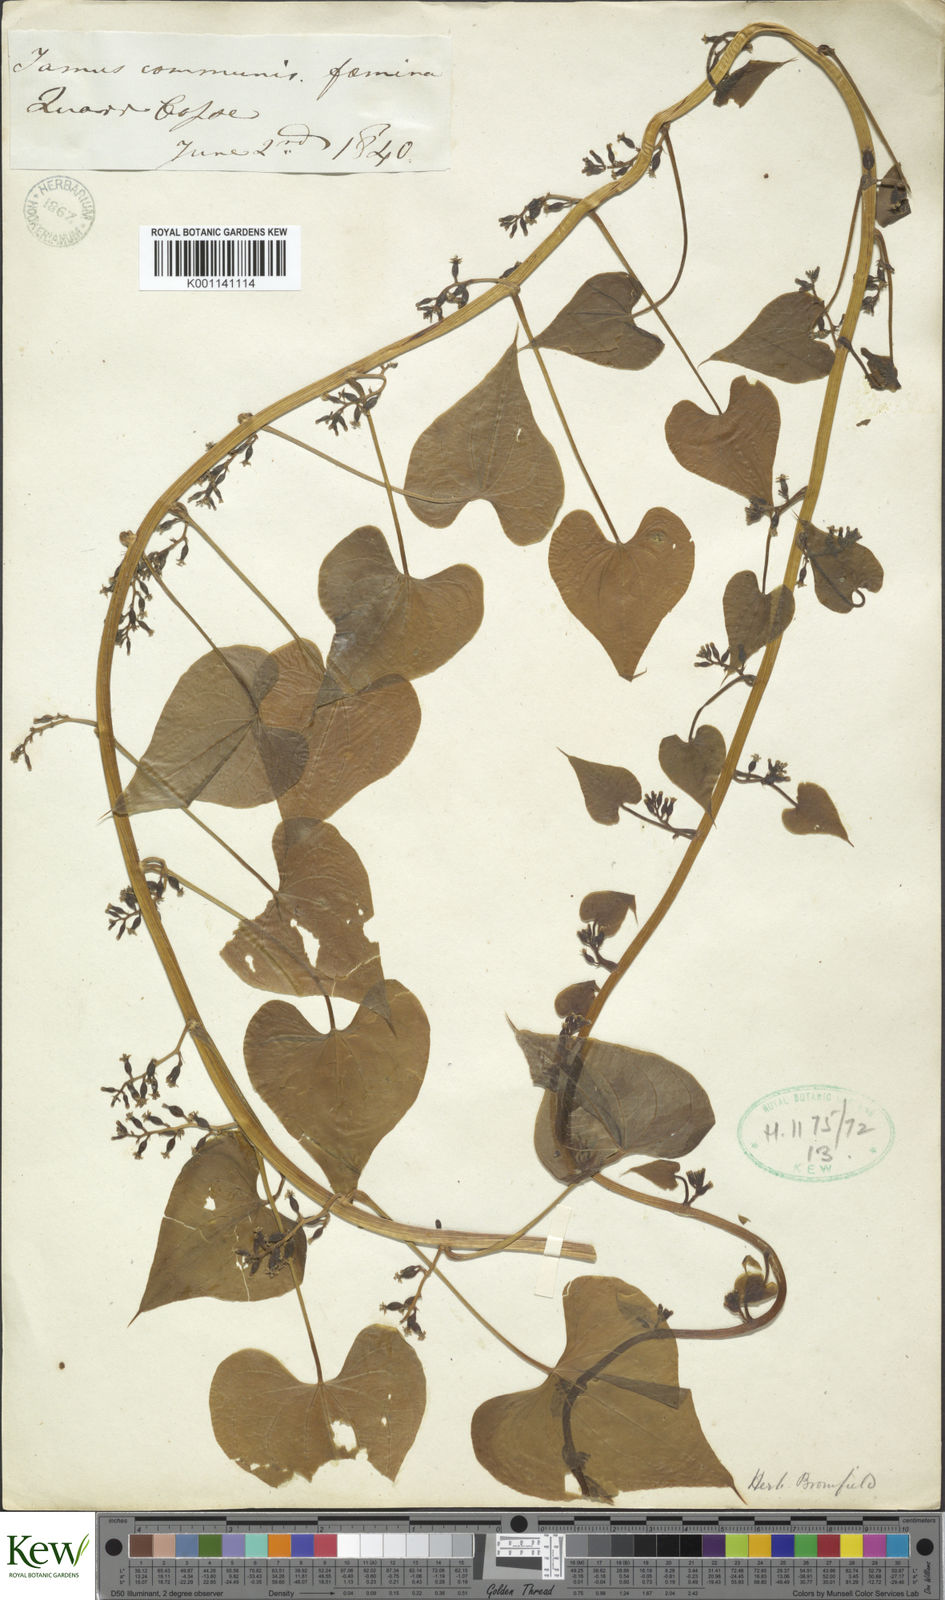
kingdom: Plantae
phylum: Tracheophyta
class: Liliopsida
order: Dioscoreales
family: Dioscoreaceae
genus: Dioscorea
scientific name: Dioscorea communis
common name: Black-bindweed
